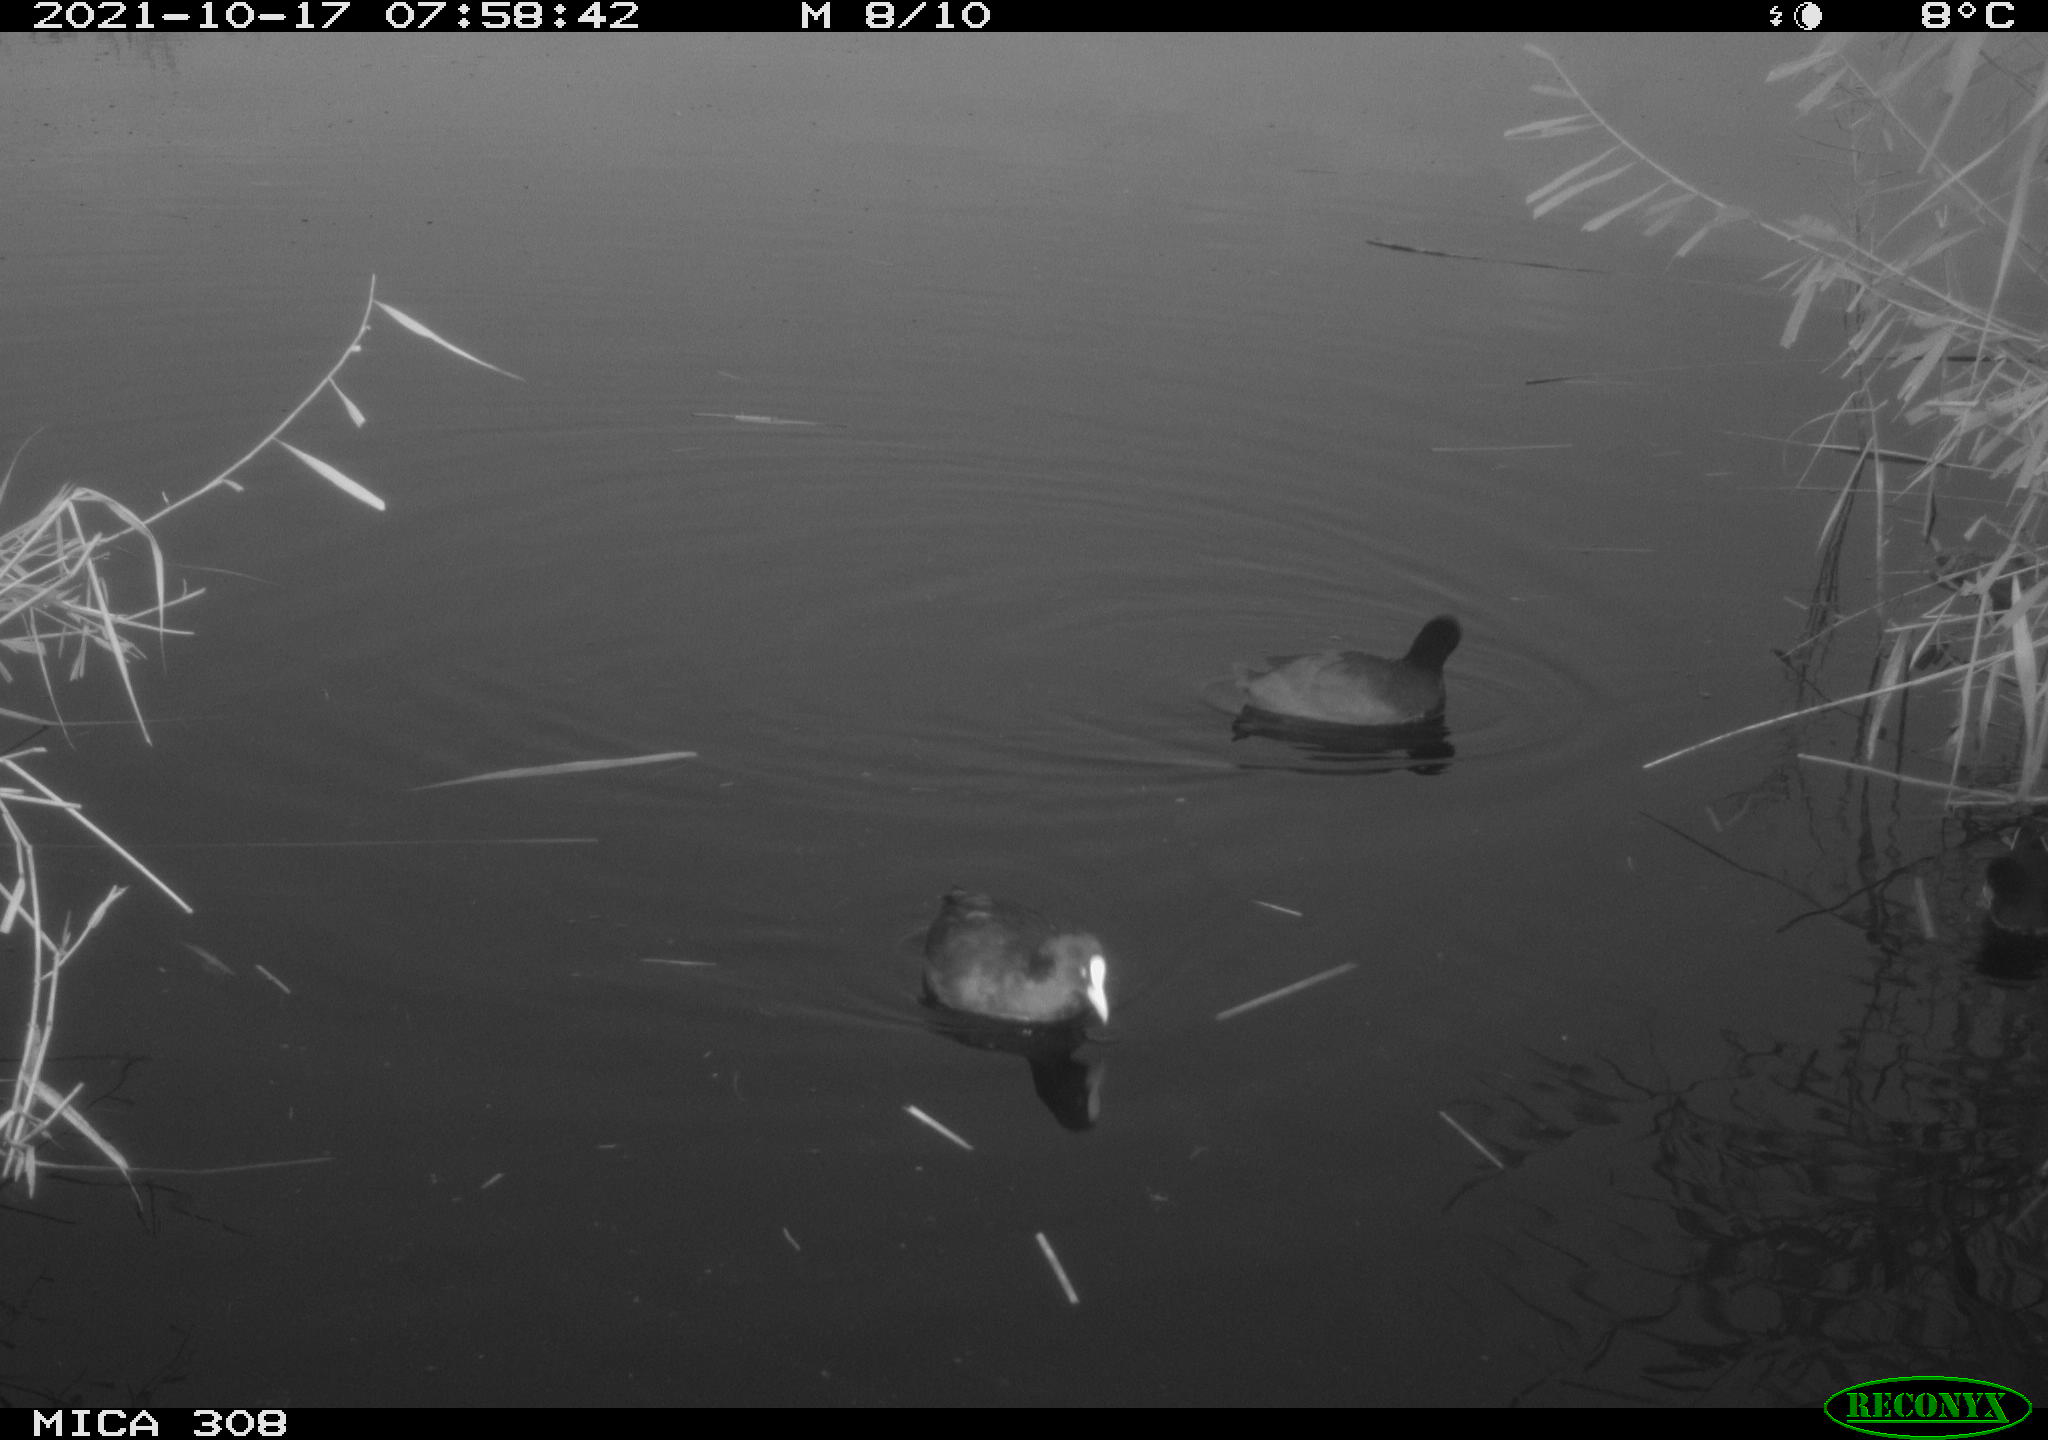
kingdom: Animalia
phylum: Chordata
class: Aves
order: Gruiformes
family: Rallidae
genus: Fulica
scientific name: Fulica atra
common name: Eurasian coot
